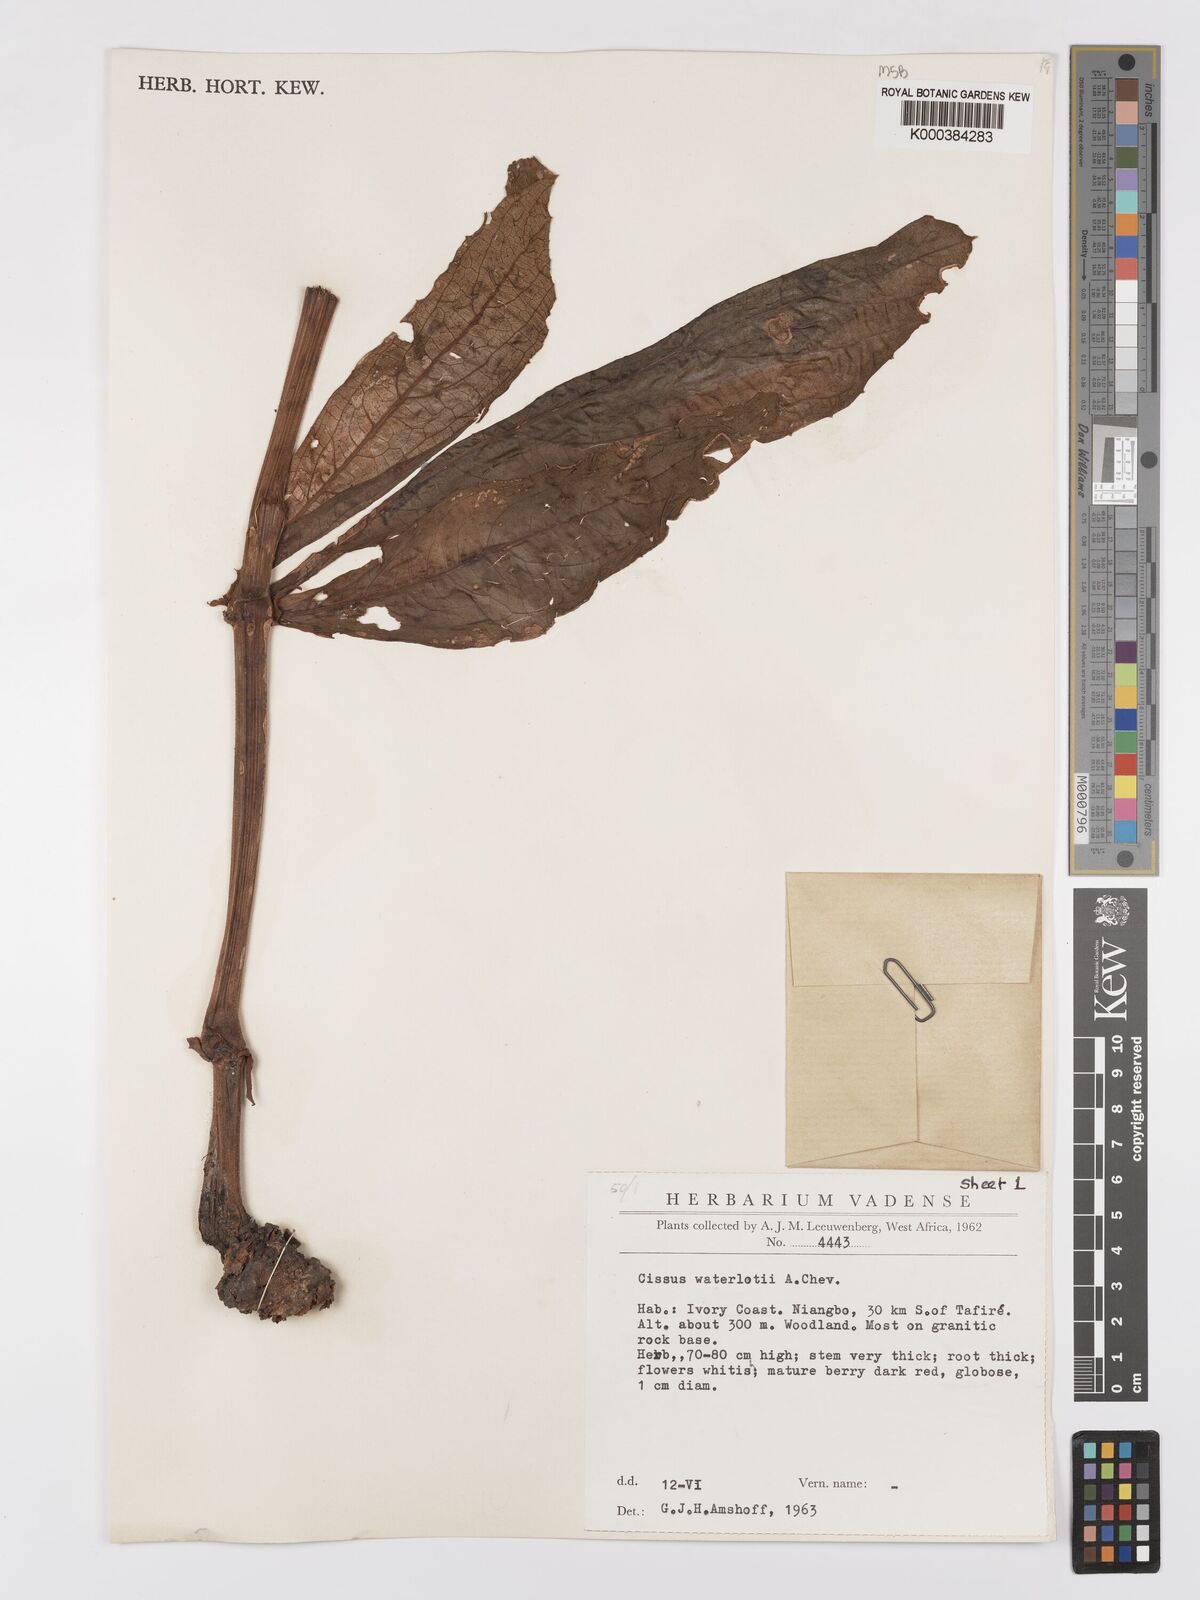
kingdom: Plantae
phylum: Tracheophyta
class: Magnoliopsida
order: Vitales
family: Vitaceae
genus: Cyphostemma
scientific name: Cyphostemma waterlotii
